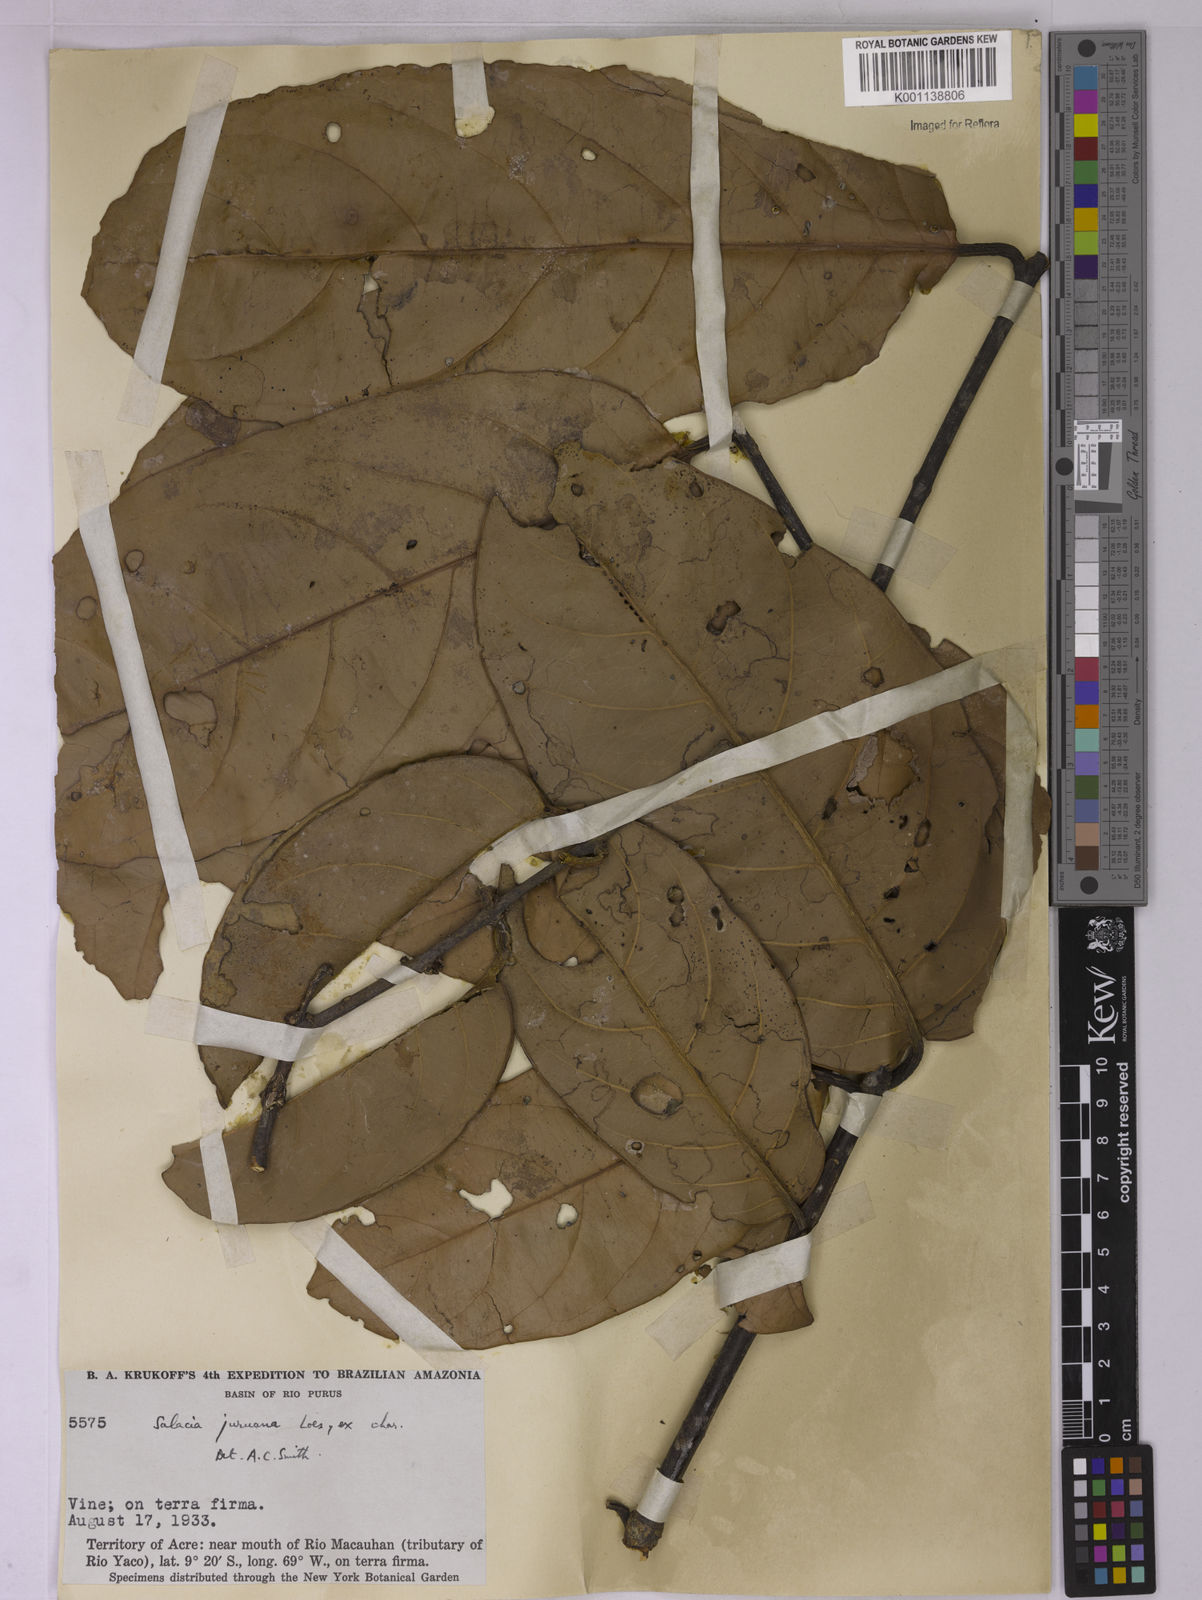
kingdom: Plantae
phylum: Tracheophyta
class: Magnoliopsida
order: Celastrales
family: Celastraceae
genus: Salacia
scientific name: Salacia juruana
